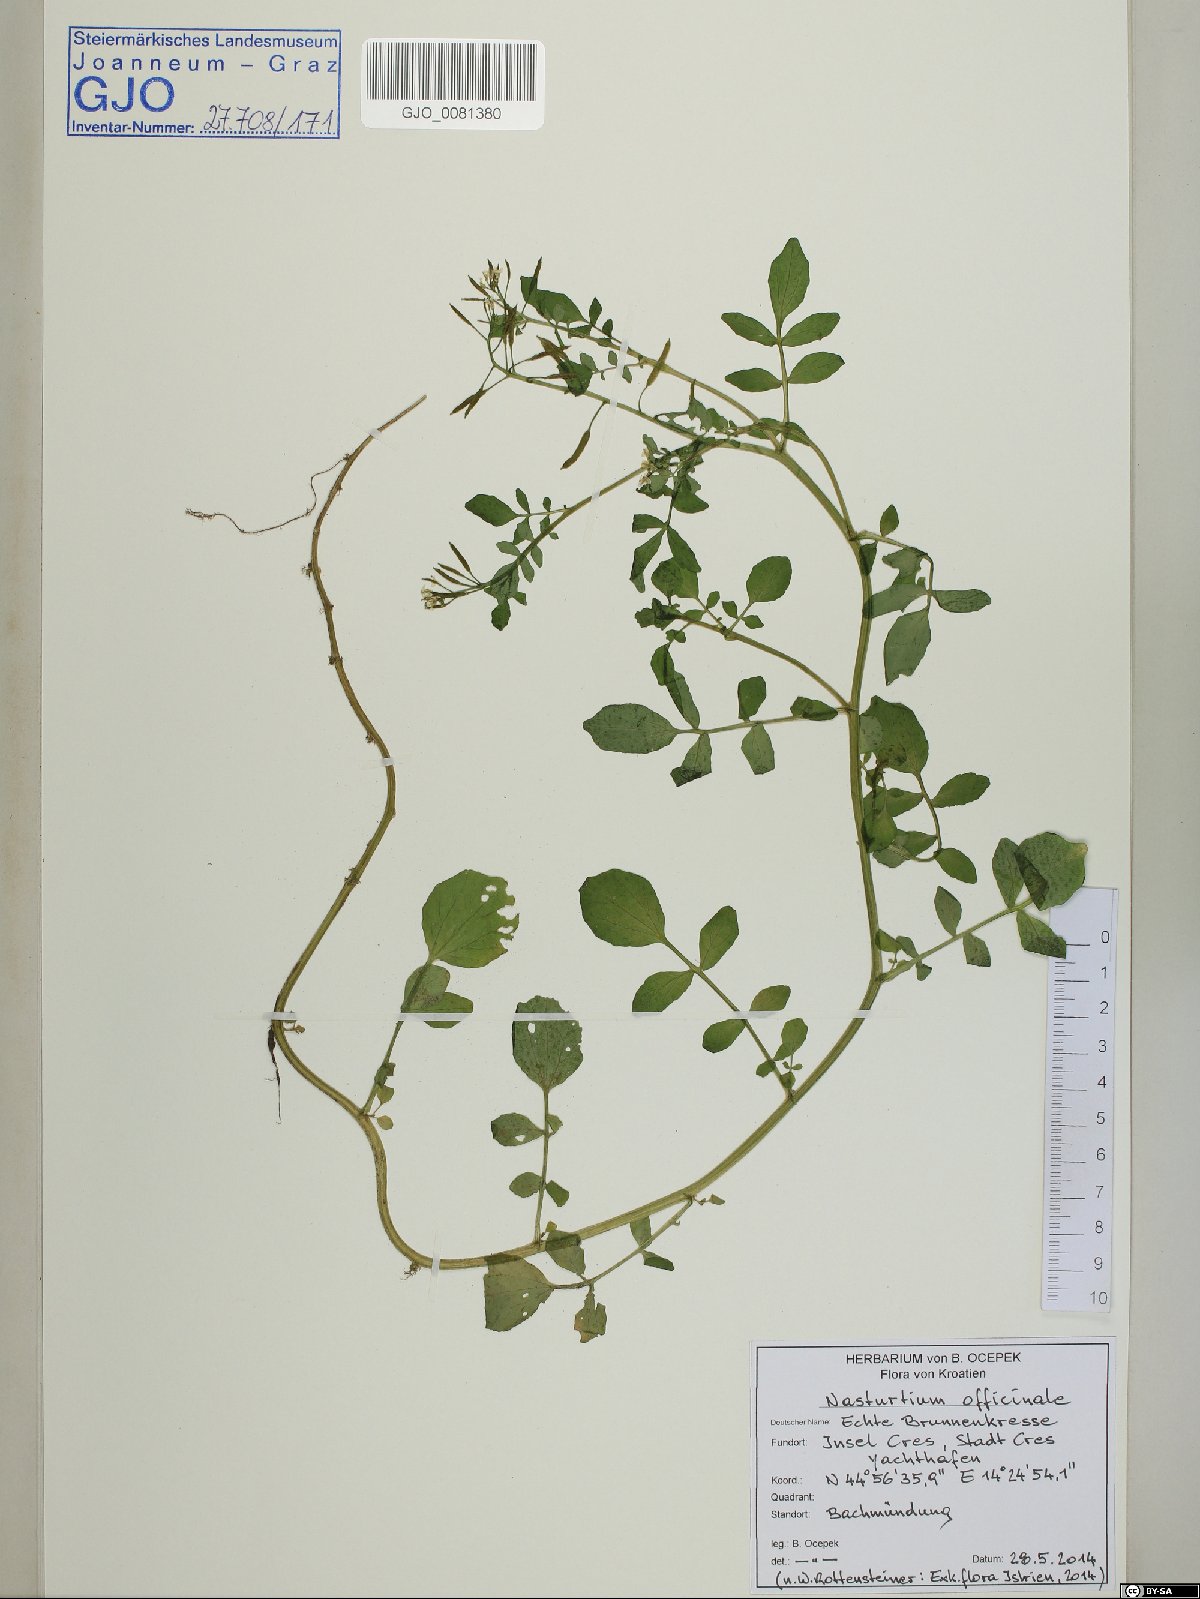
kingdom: Plantae
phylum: Tracheophyta
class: Magnoliopsida
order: Brassicales
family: Brassicaceae
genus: Nasturtium
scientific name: Nasturtium officinale
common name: Watercress
